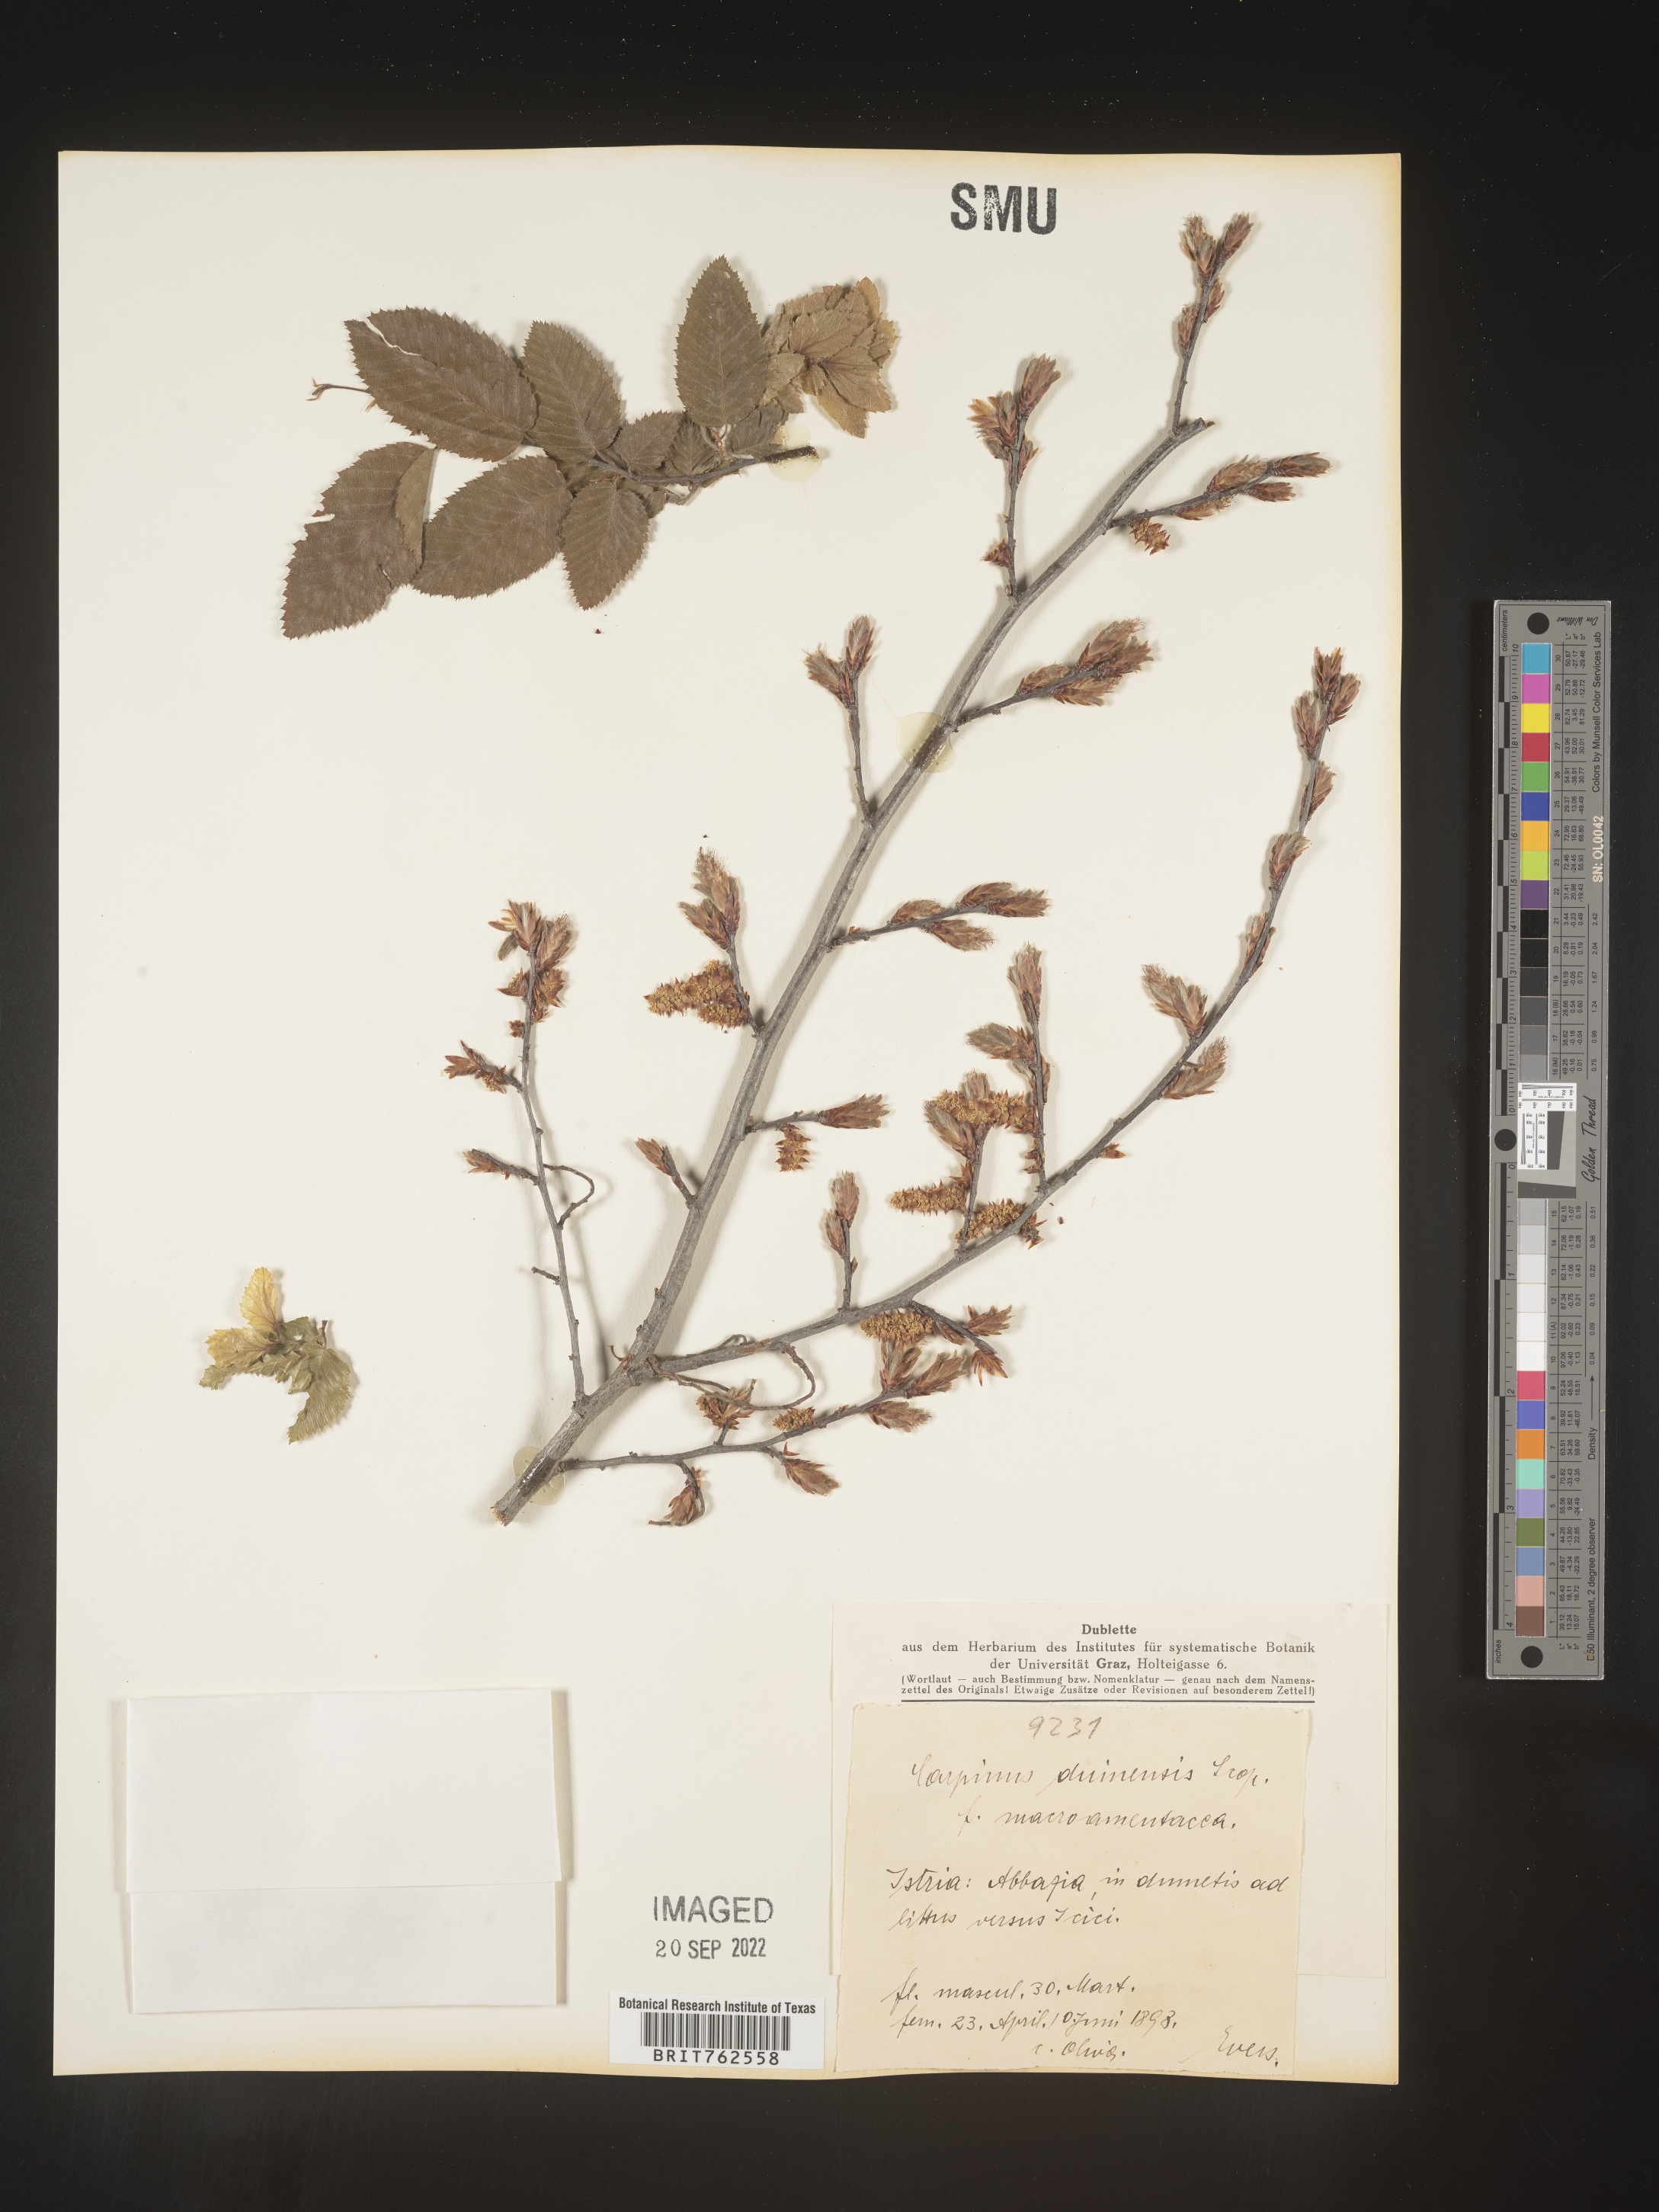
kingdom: Plantae
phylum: Tracheophyta
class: Magnoliopsida
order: Fagales
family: Betulaceae
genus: Carpinus
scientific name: Carpinus
